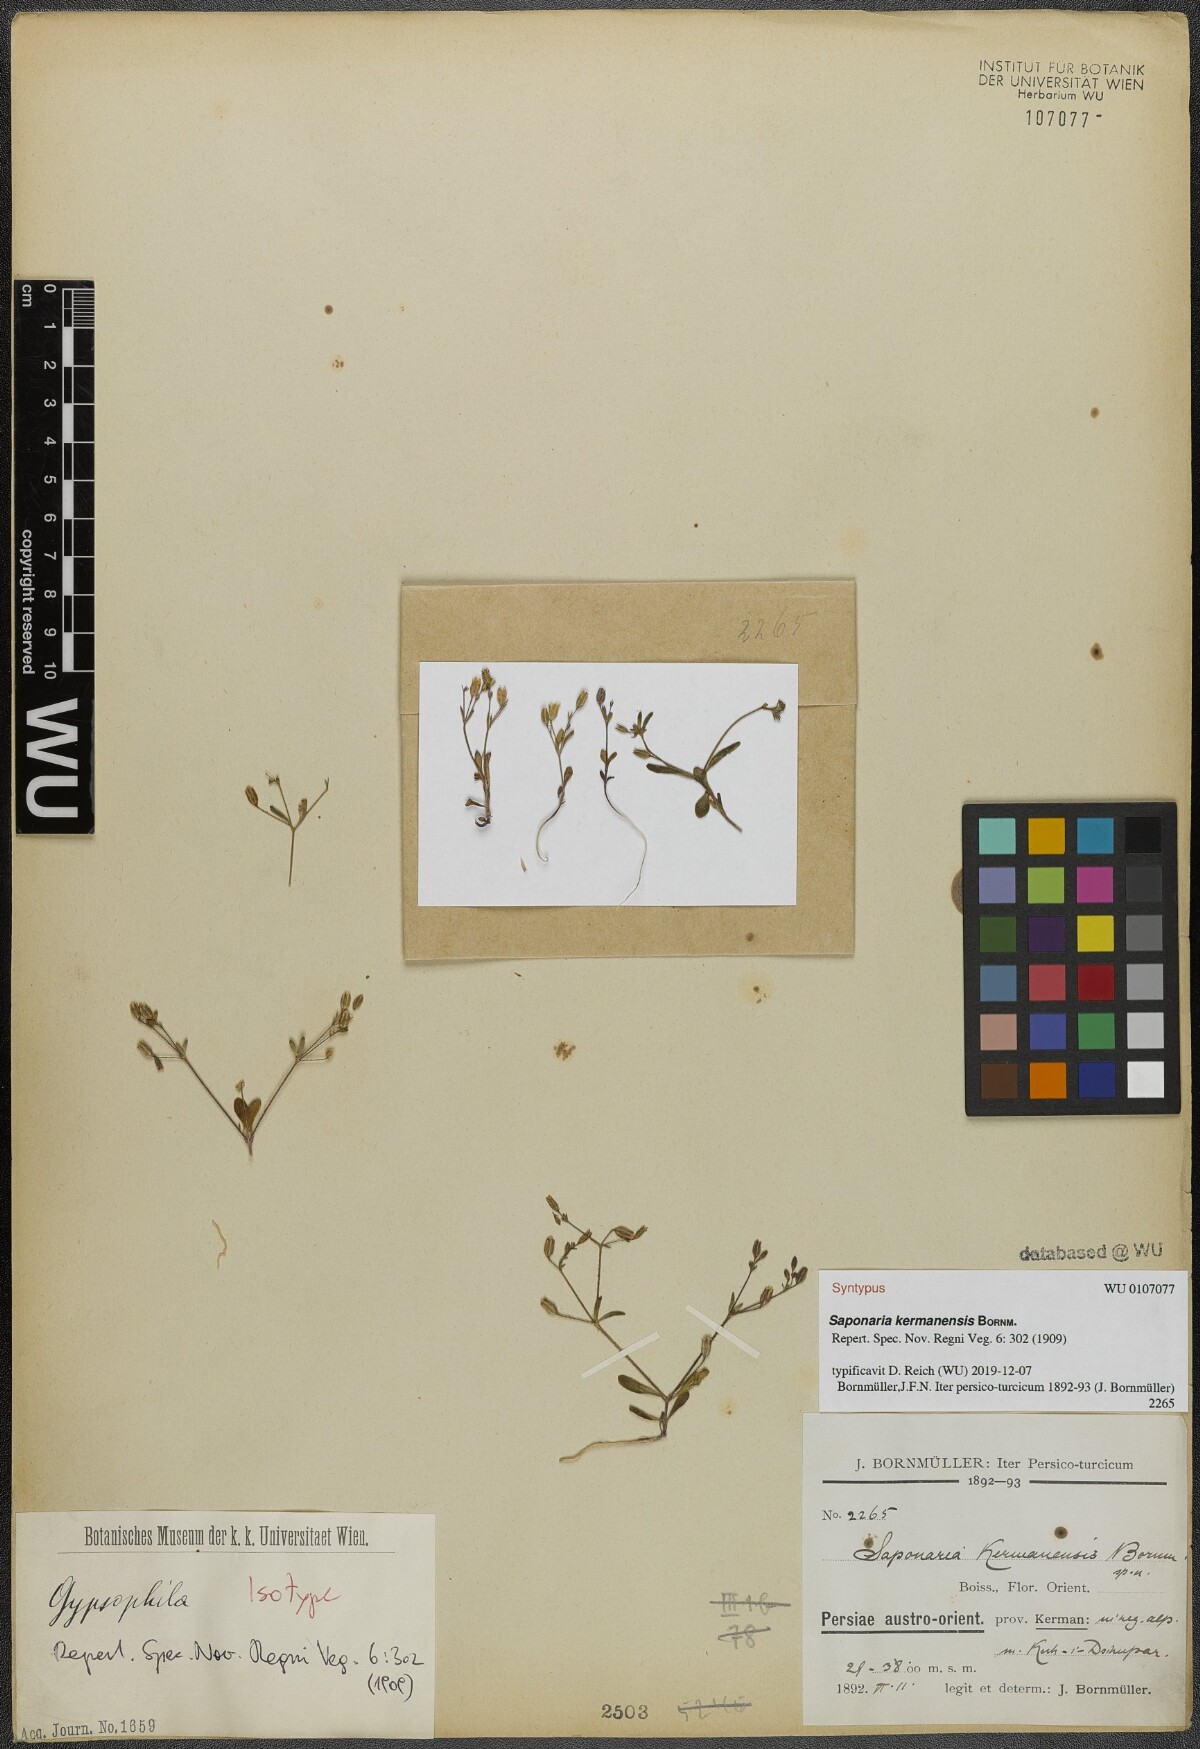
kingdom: Plantae
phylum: Tracheophyta
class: Magnoliopsida
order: Caryophyllales
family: Caryophyllaceae
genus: Acanthophyllum
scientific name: Acanthophyllum kermanense
